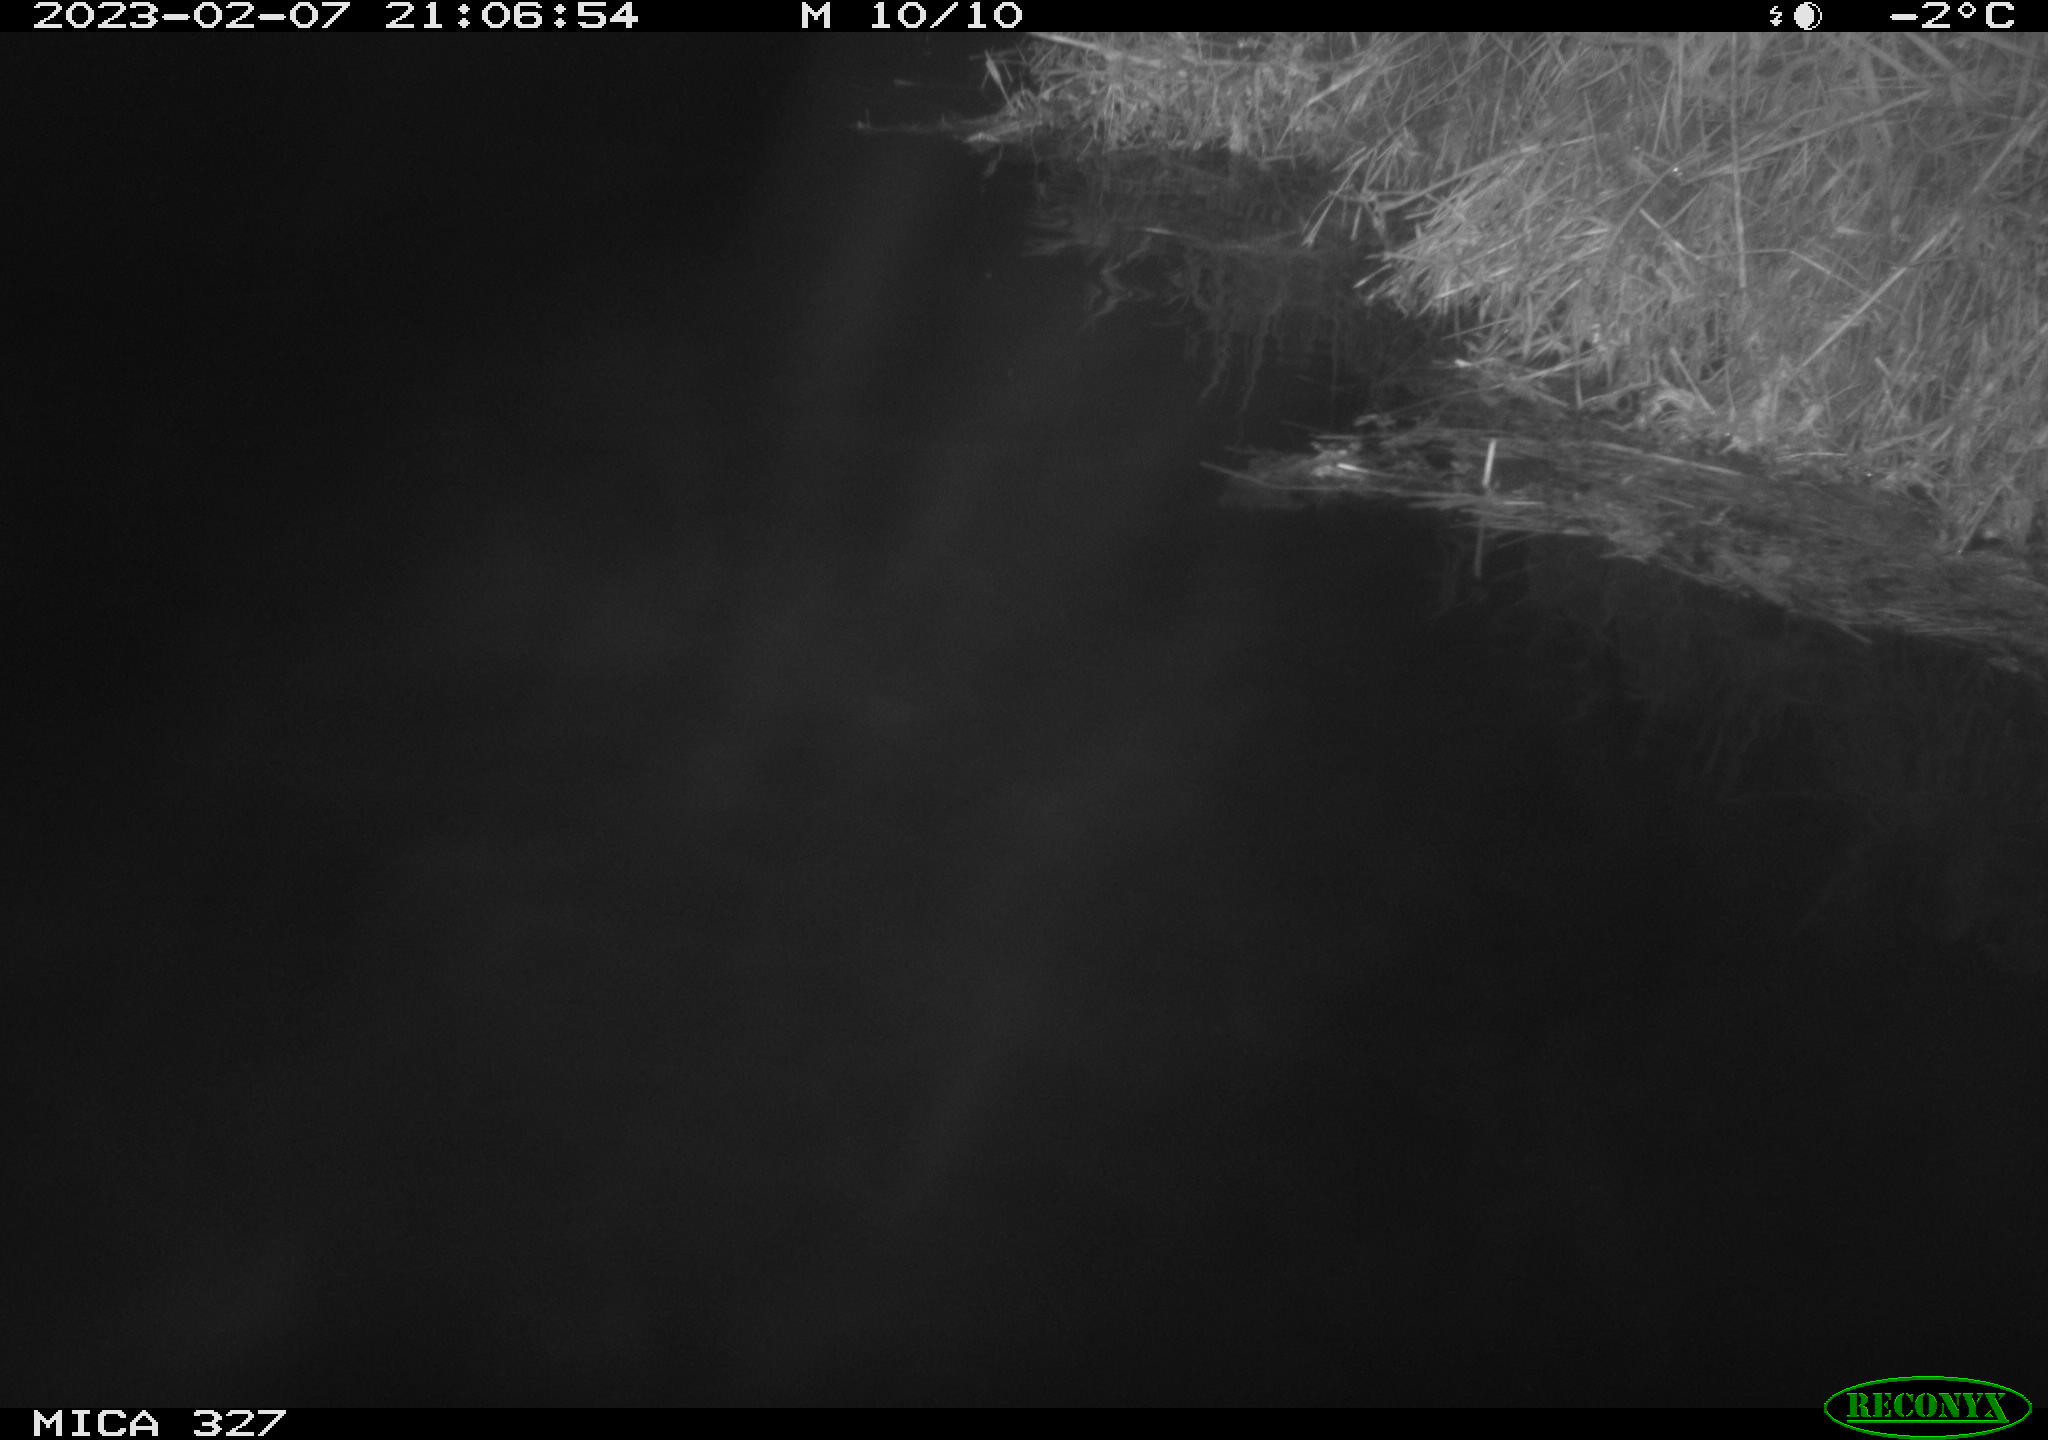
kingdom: Animalia
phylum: Chordata
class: Mammalia
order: Rodentia
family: Cricetidae
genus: Ondatra
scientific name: Ondatra zibethicus
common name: Muskrat
